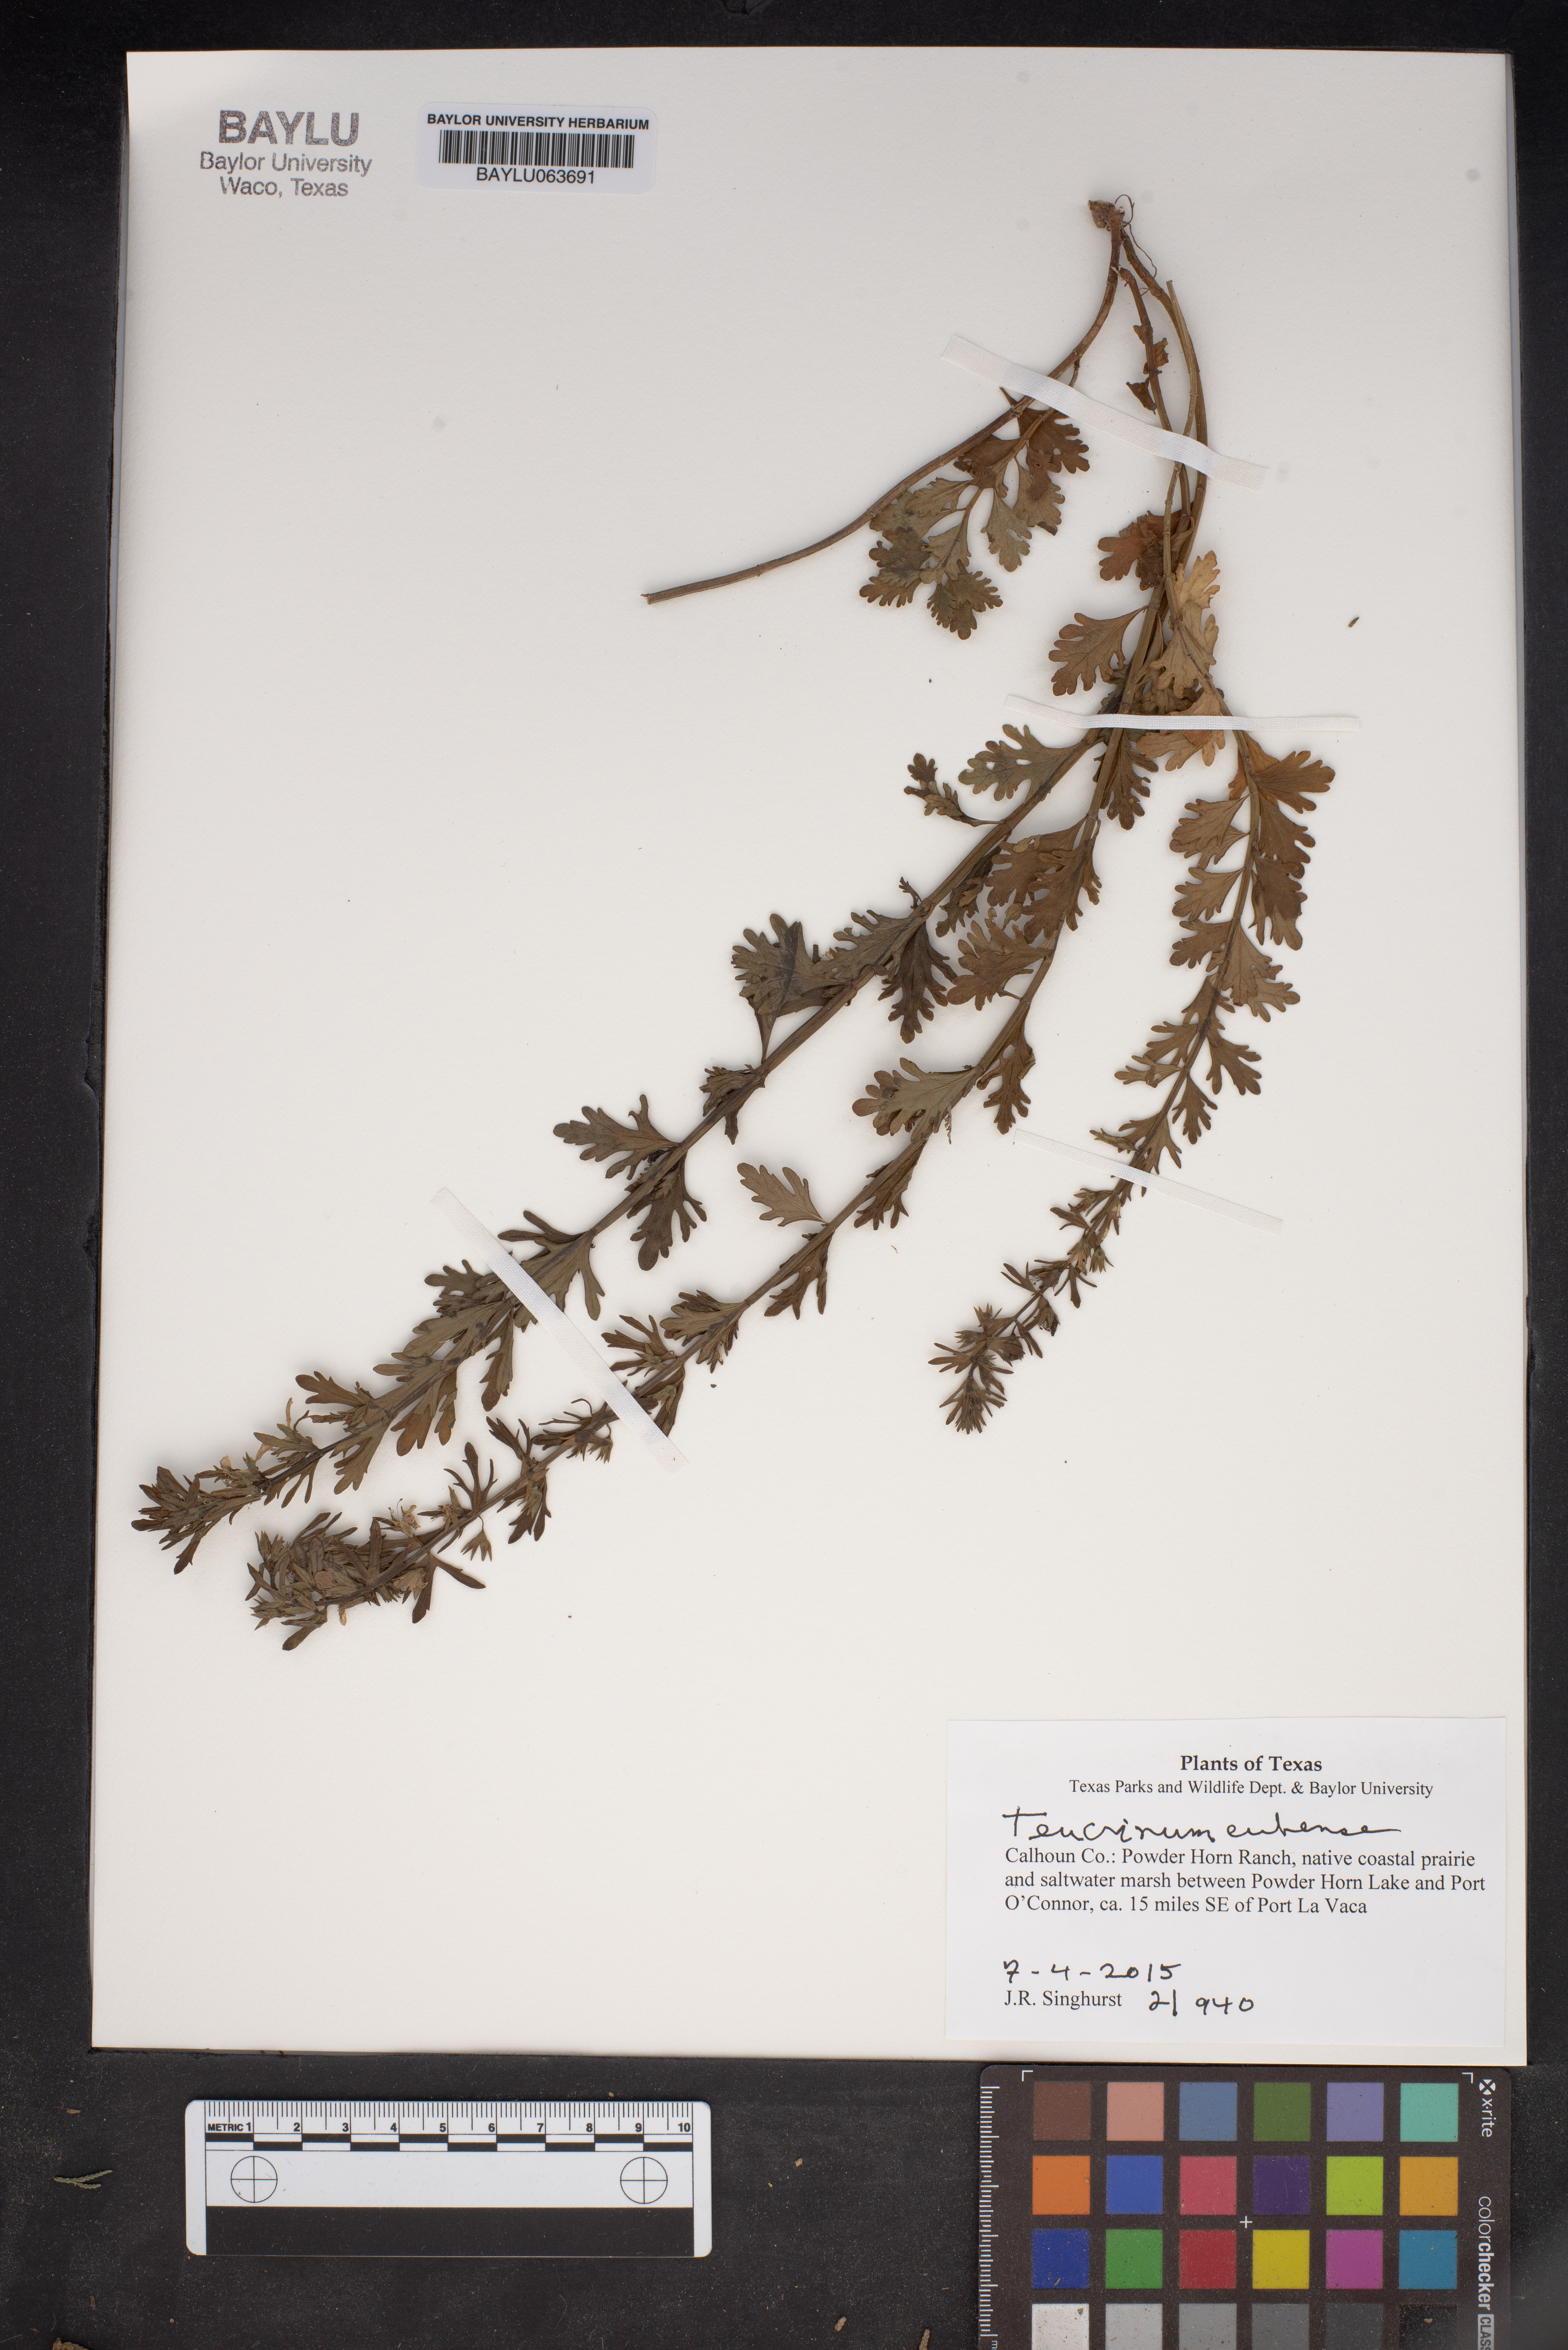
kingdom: Plantae
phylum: Tracheophyta
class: Magnoliopsida
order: Lamiales
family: Lamiaceae
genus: Teucrium
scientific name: Teucrium cubense
